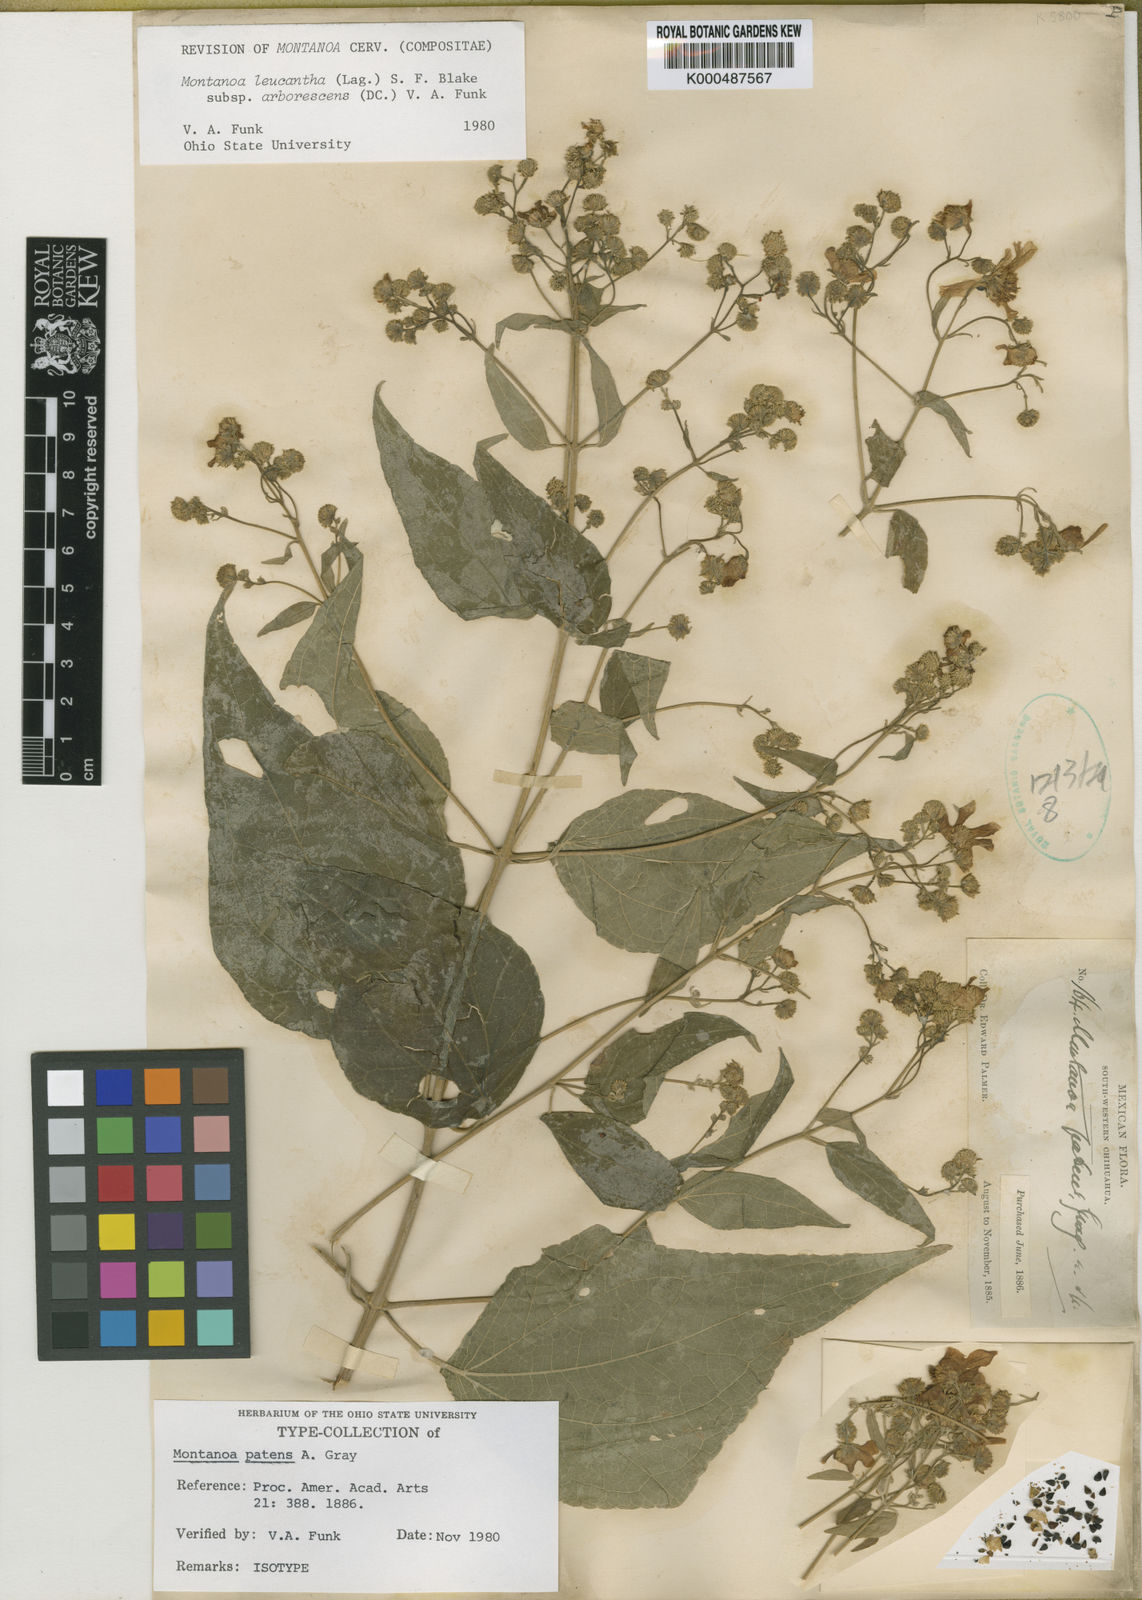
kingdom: Plantae
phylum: Tracheophyta
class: Magnoliopsida
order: Asterales
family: Asteraceae
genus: Montanoa
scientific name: Montanoa leucantha
